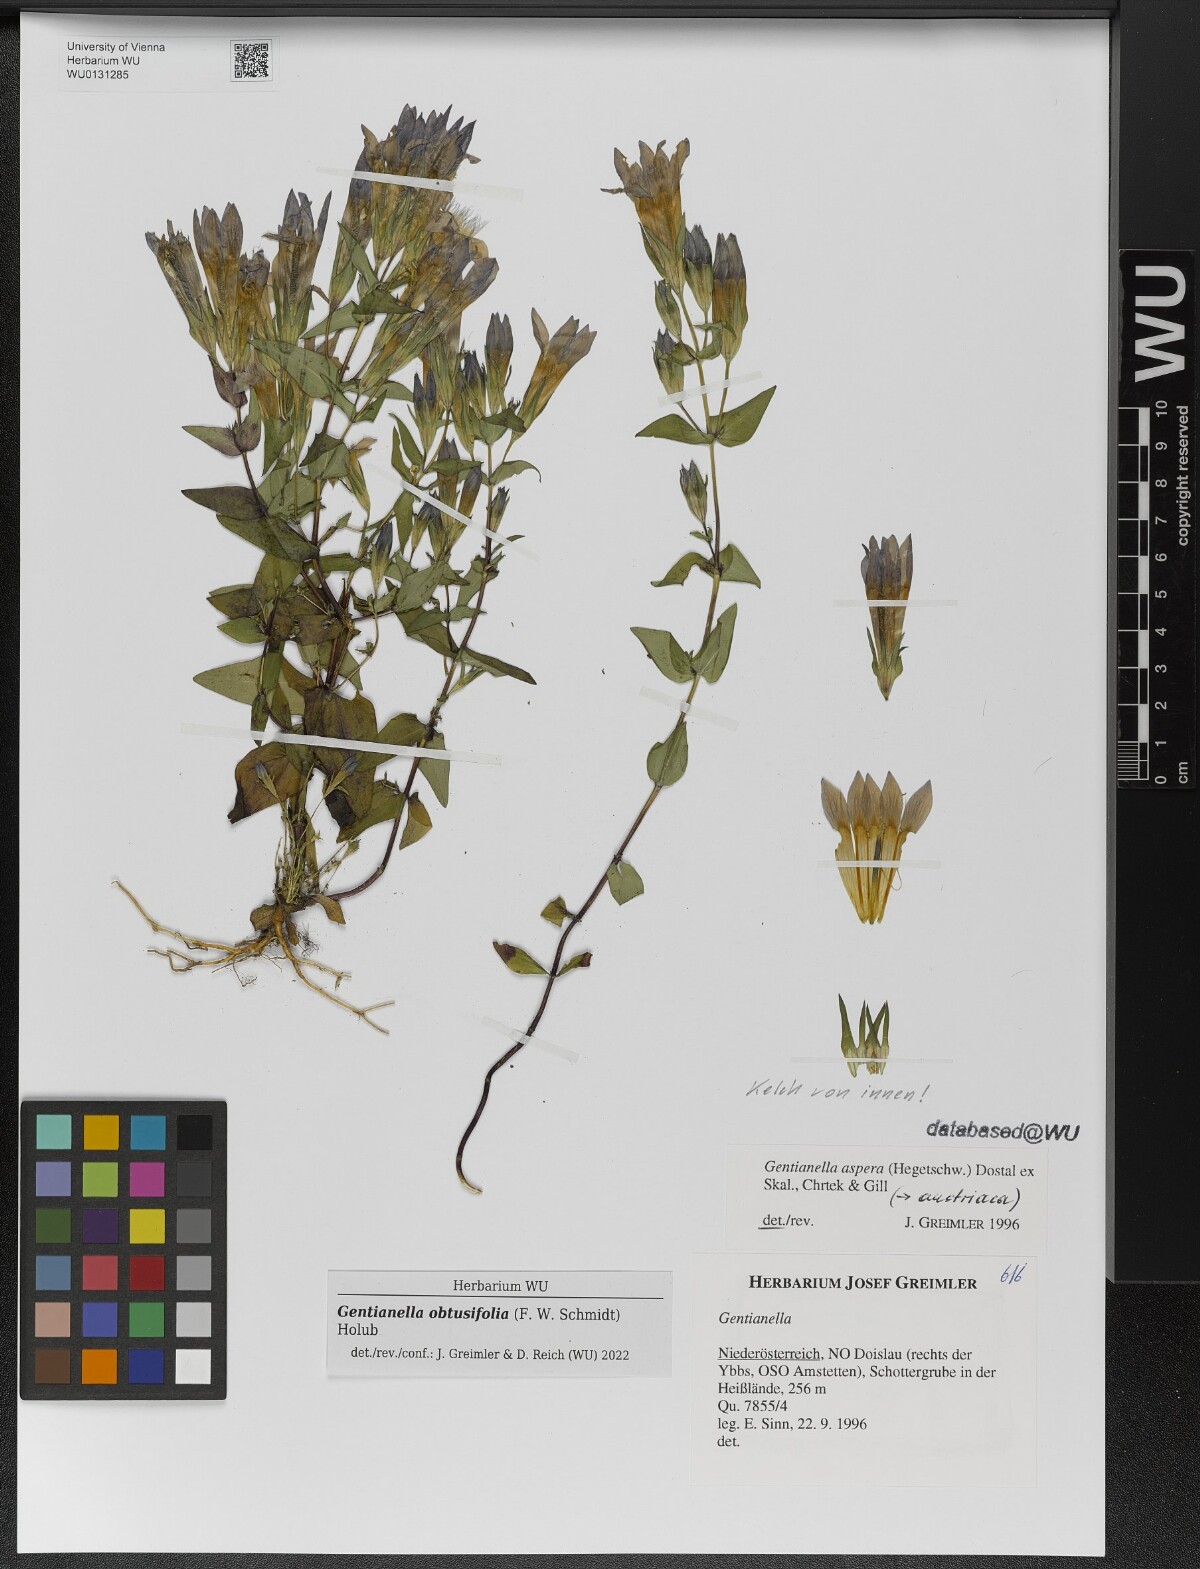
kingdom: Plantae
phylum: Tracheophyta
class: Magnoliopsida
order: Gentianales
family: Gentianaceae
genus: Gentianella
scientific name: Gentianella obtusifolia
